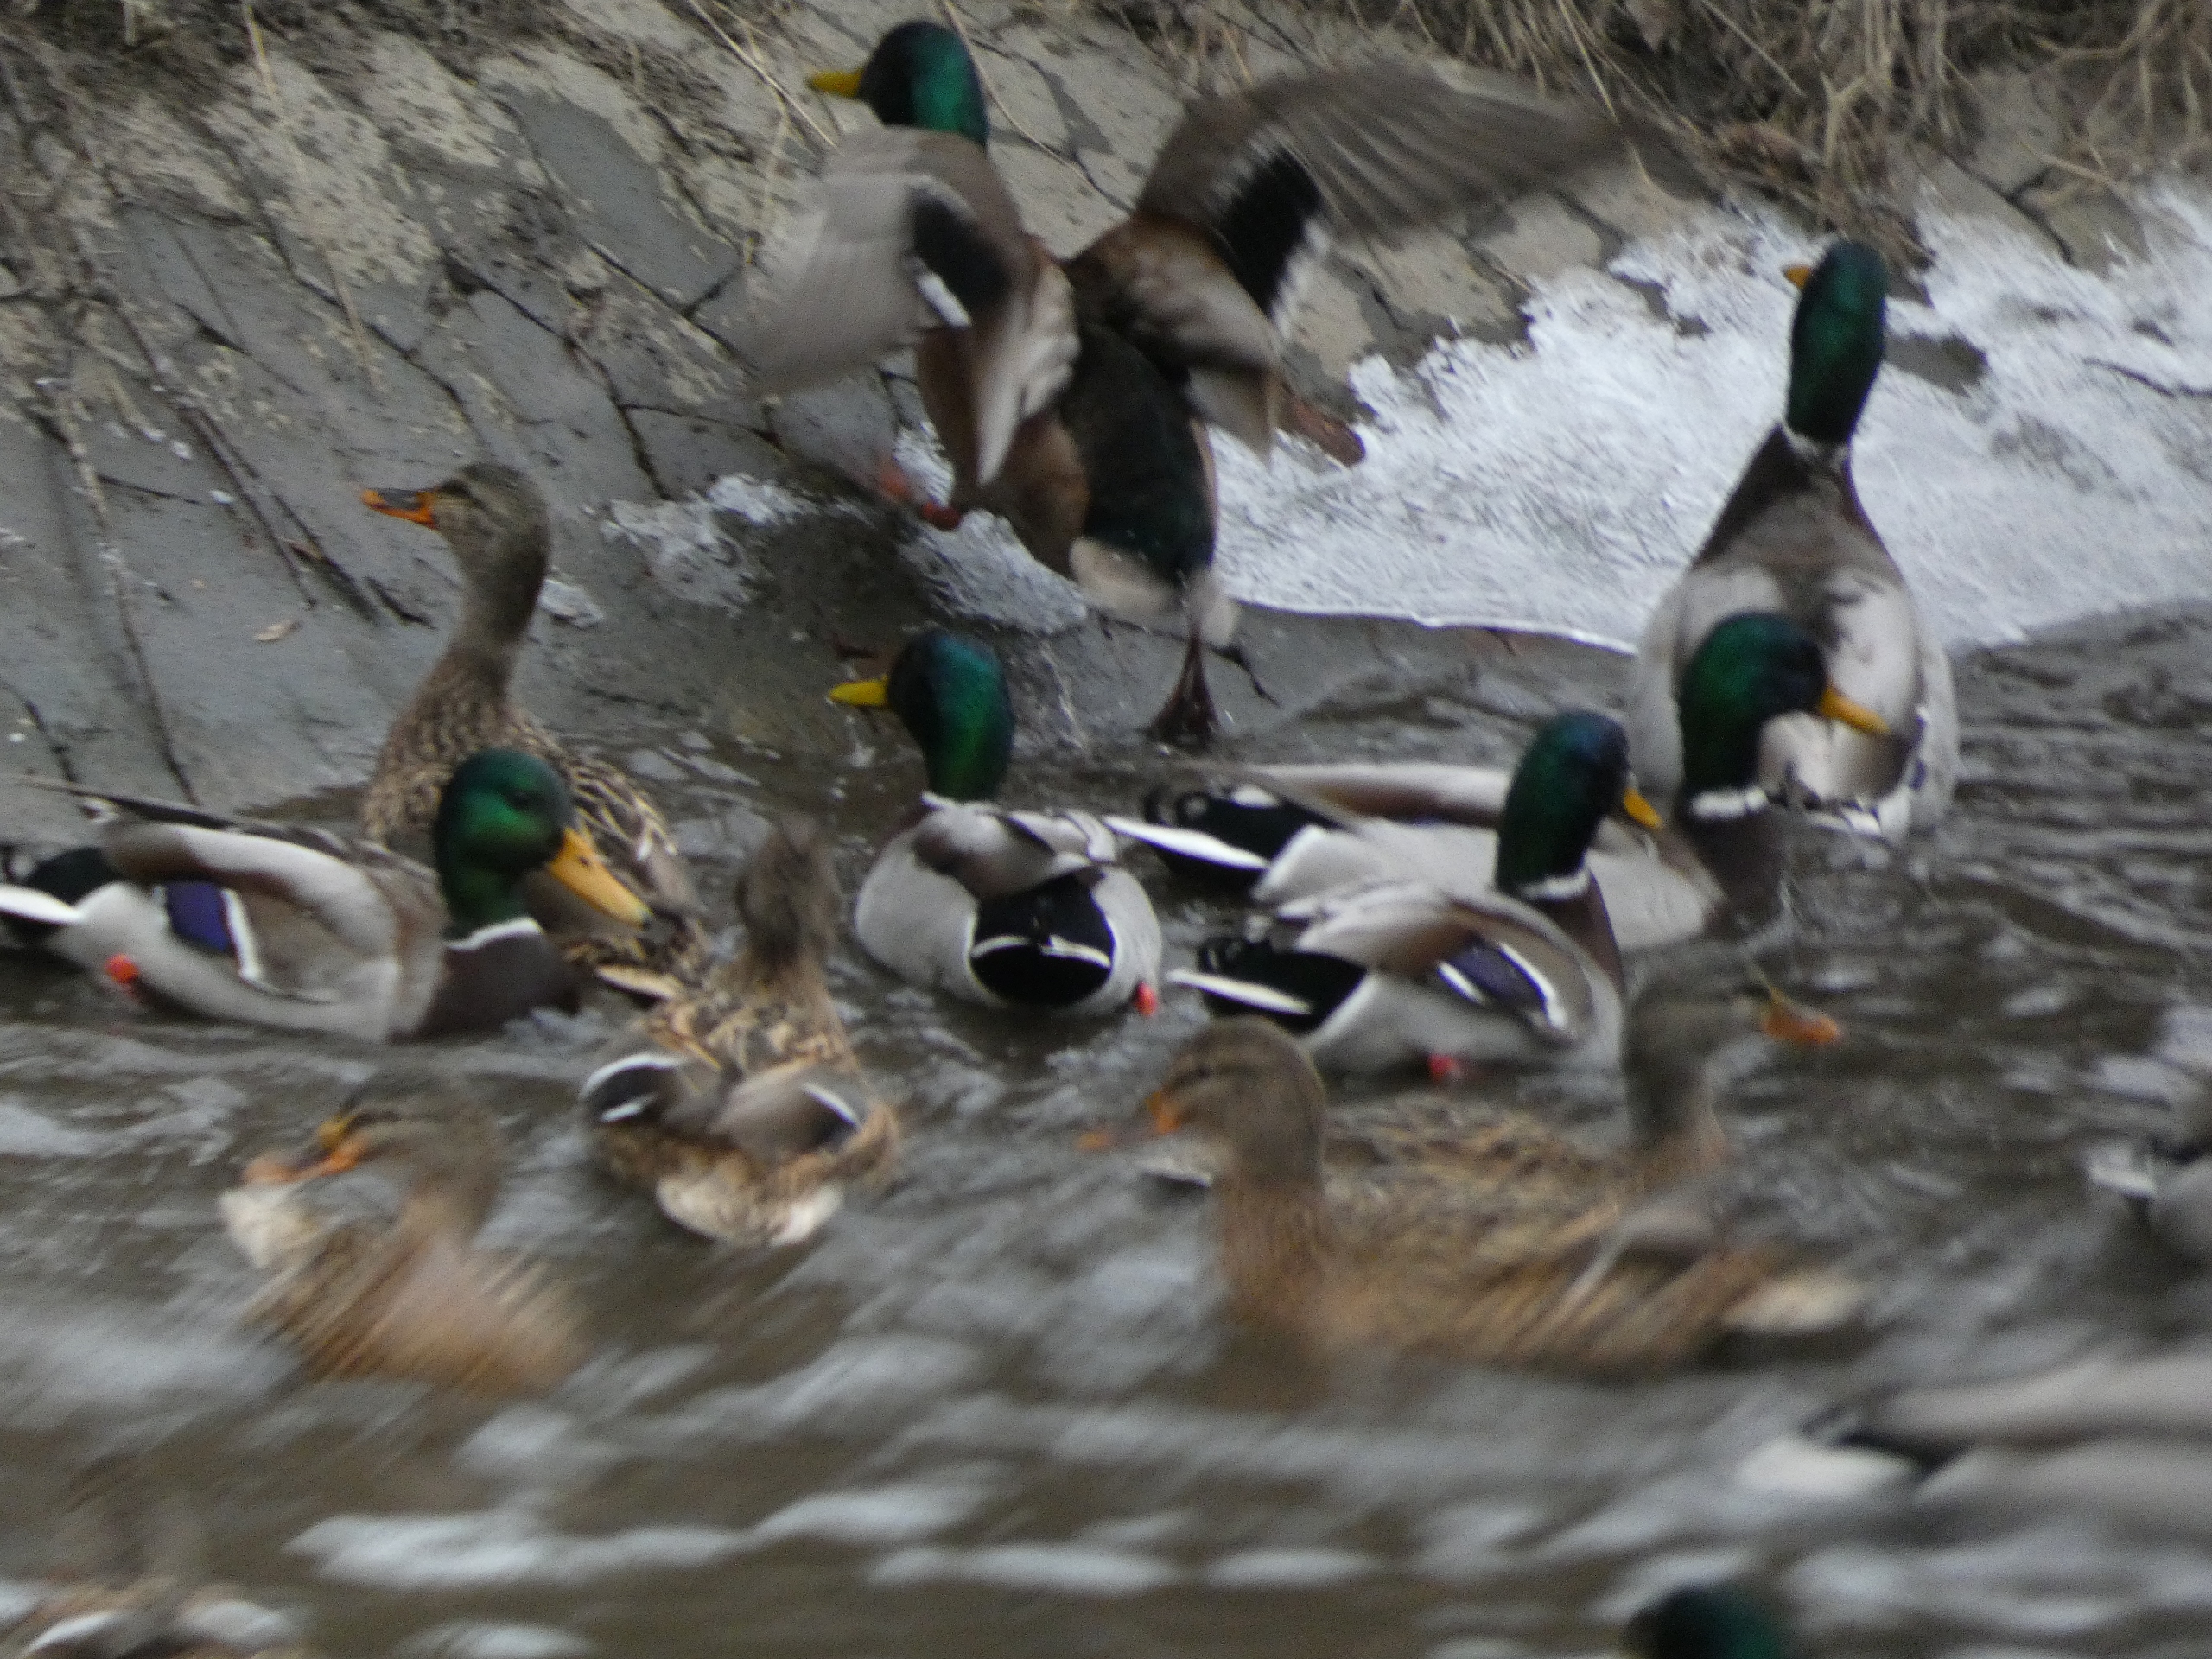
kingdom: Animalia
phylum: Chordata
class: Aves
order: Anseriformes
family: Anatidae
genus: Anas
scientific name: Anas platyrhynchos
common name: Gråand
